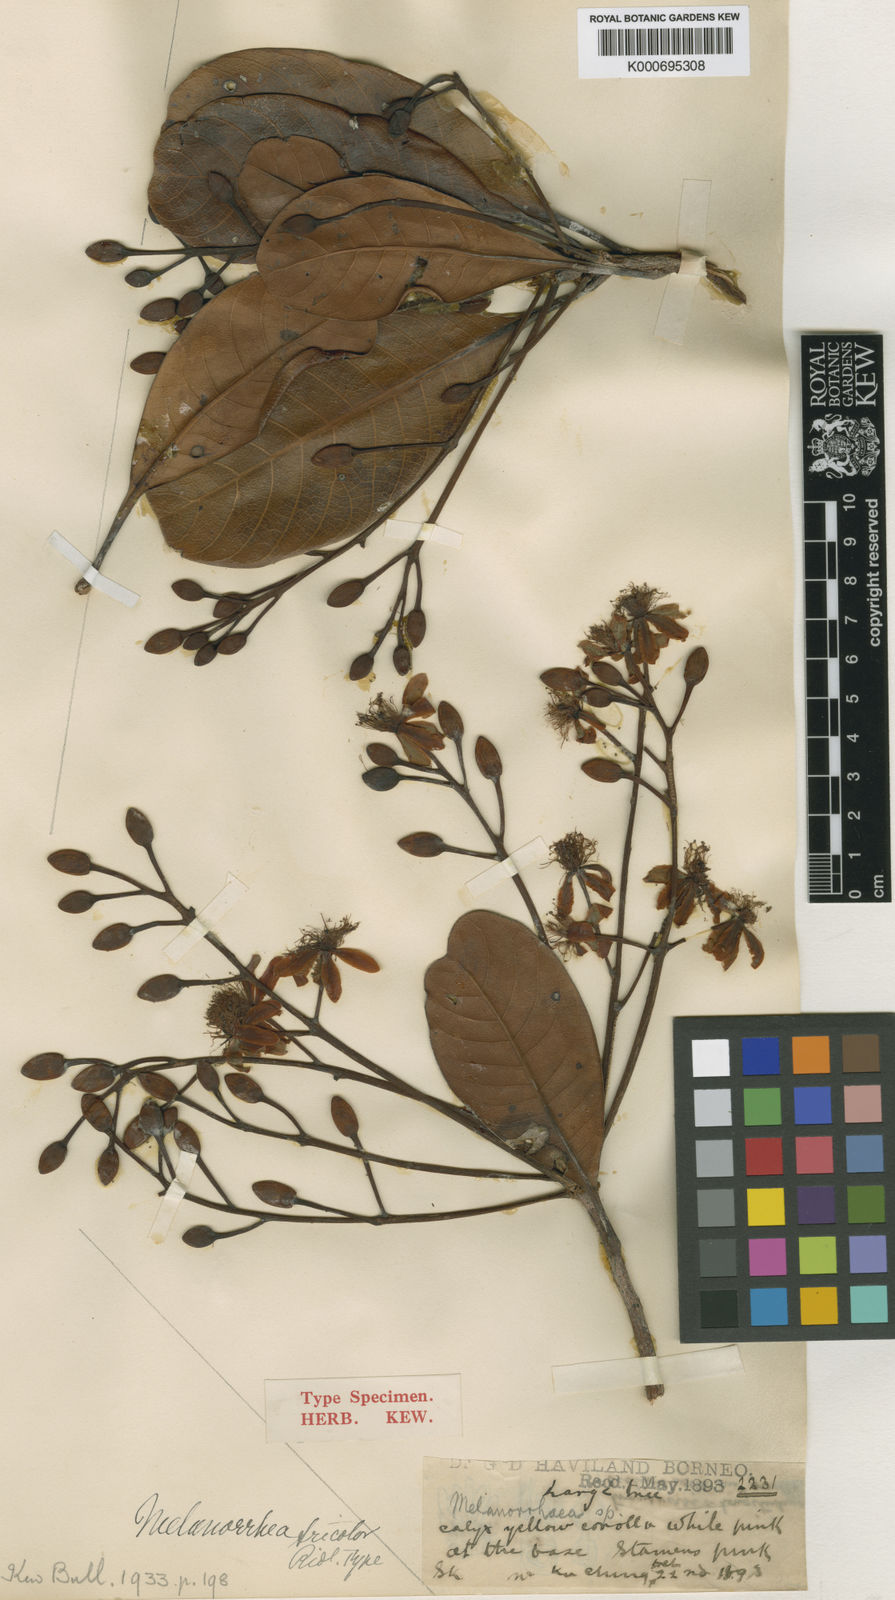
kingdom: Plantae
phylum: Tracheophyta
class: Magnoliopsida
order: Sapindales
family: Anacardiaceae
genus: Gluta
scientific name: Gluta aptera
